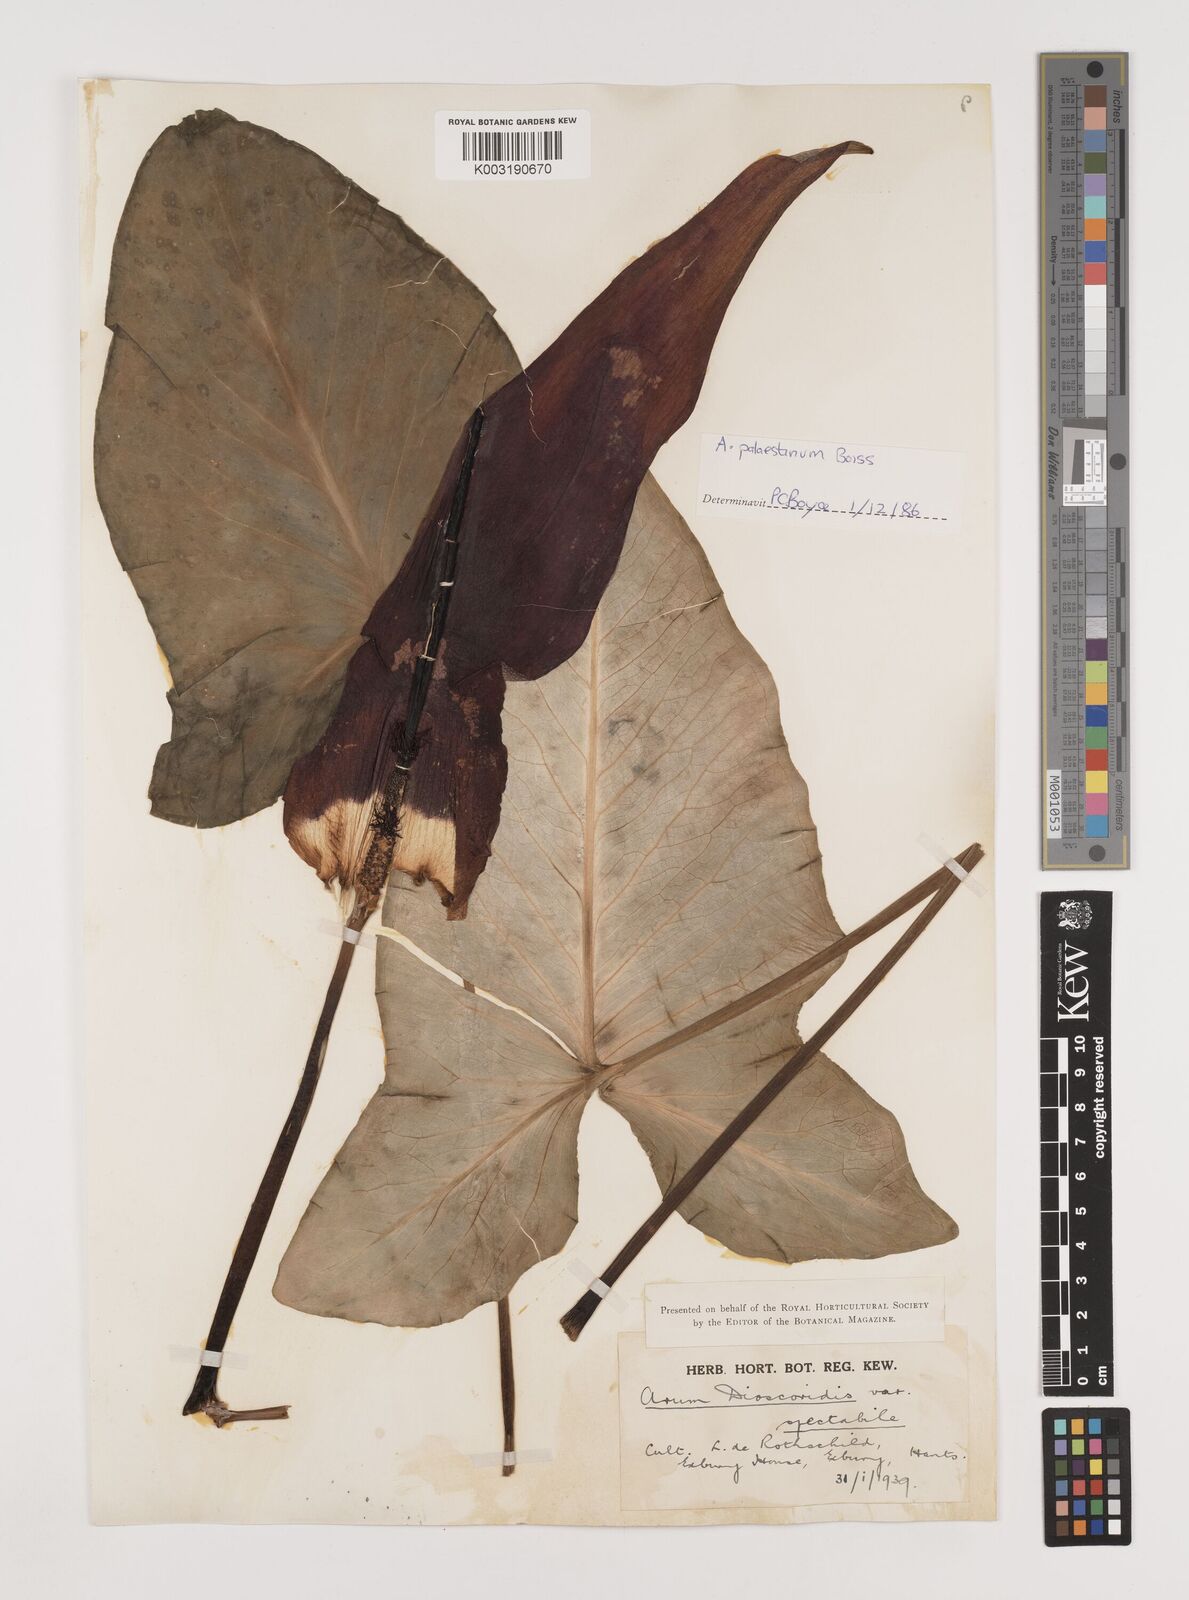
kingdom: Plantae
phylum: Tracheophyta
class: Liliopsida
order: Alismatales
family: Araceae
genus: Arum
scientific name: Arum palaestinum
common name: Solomon's lily
